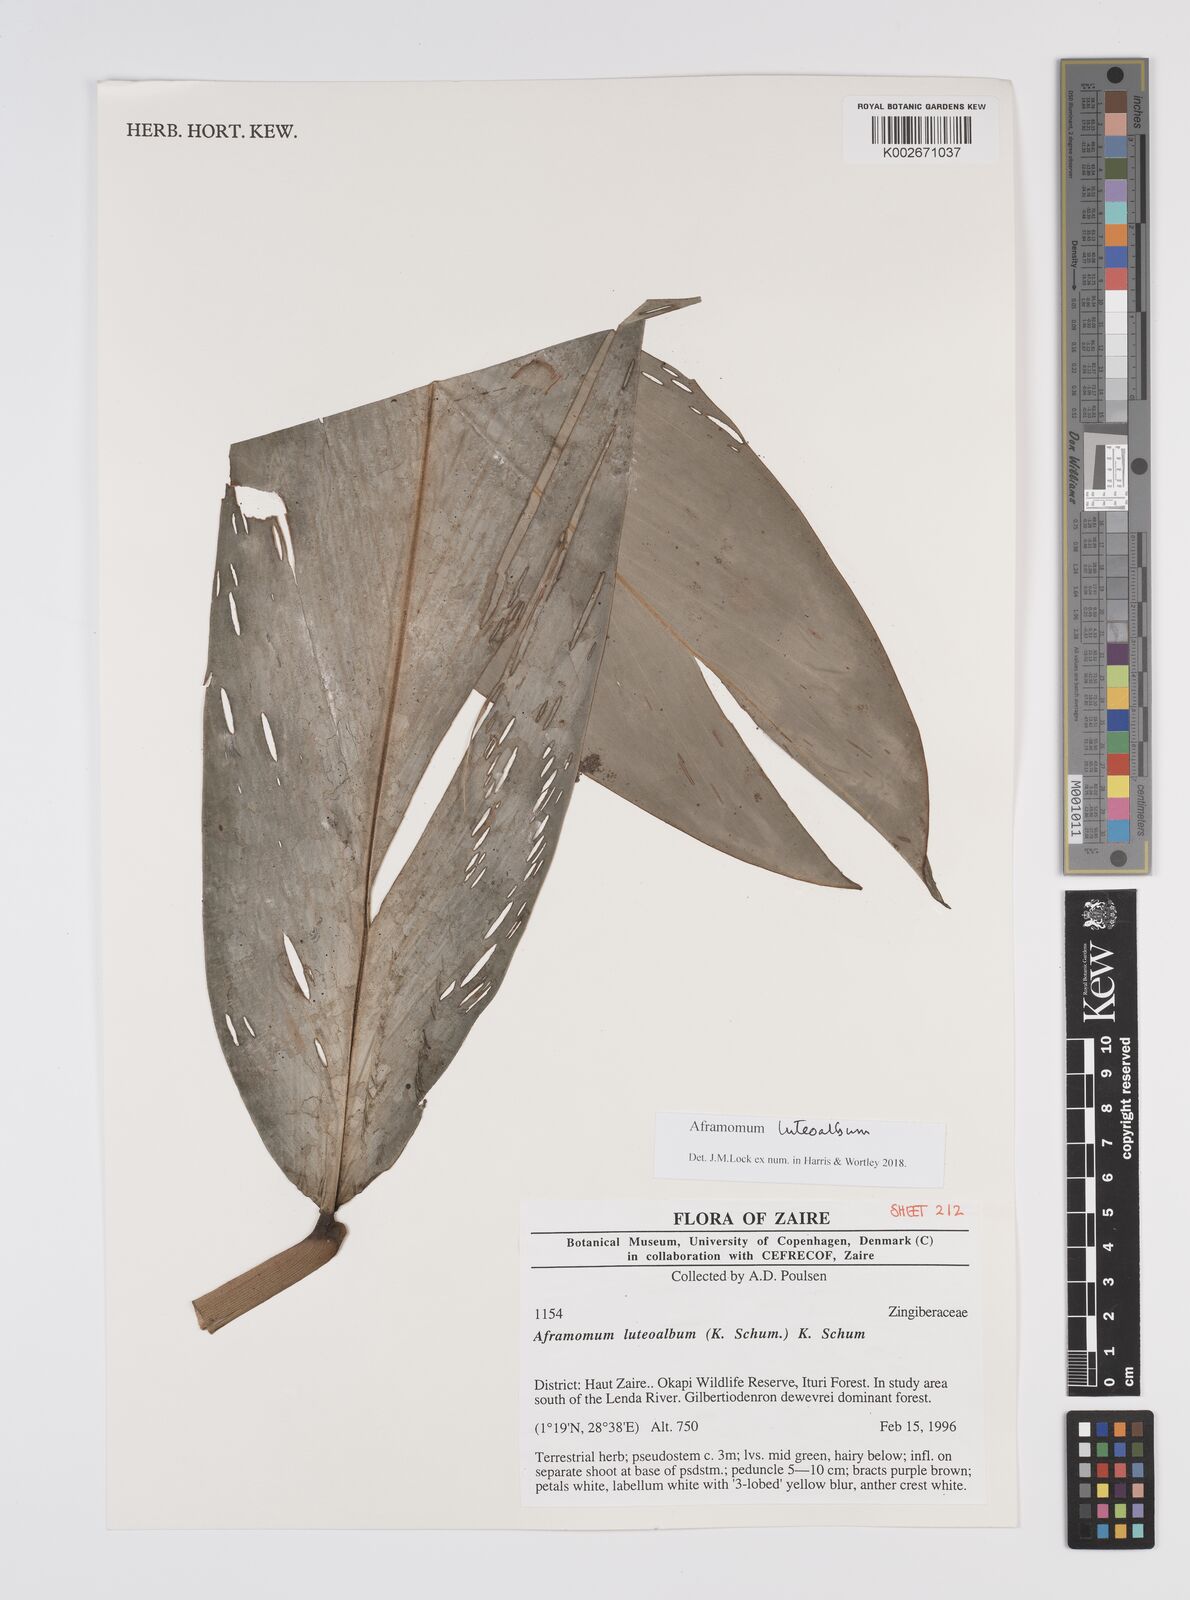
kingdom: Plantae
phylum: Tracheophyta
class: Liliopsida
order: Zingiberales
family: Zingiberaceae
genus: Aframomum
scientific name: Aframomum luteoalbum
